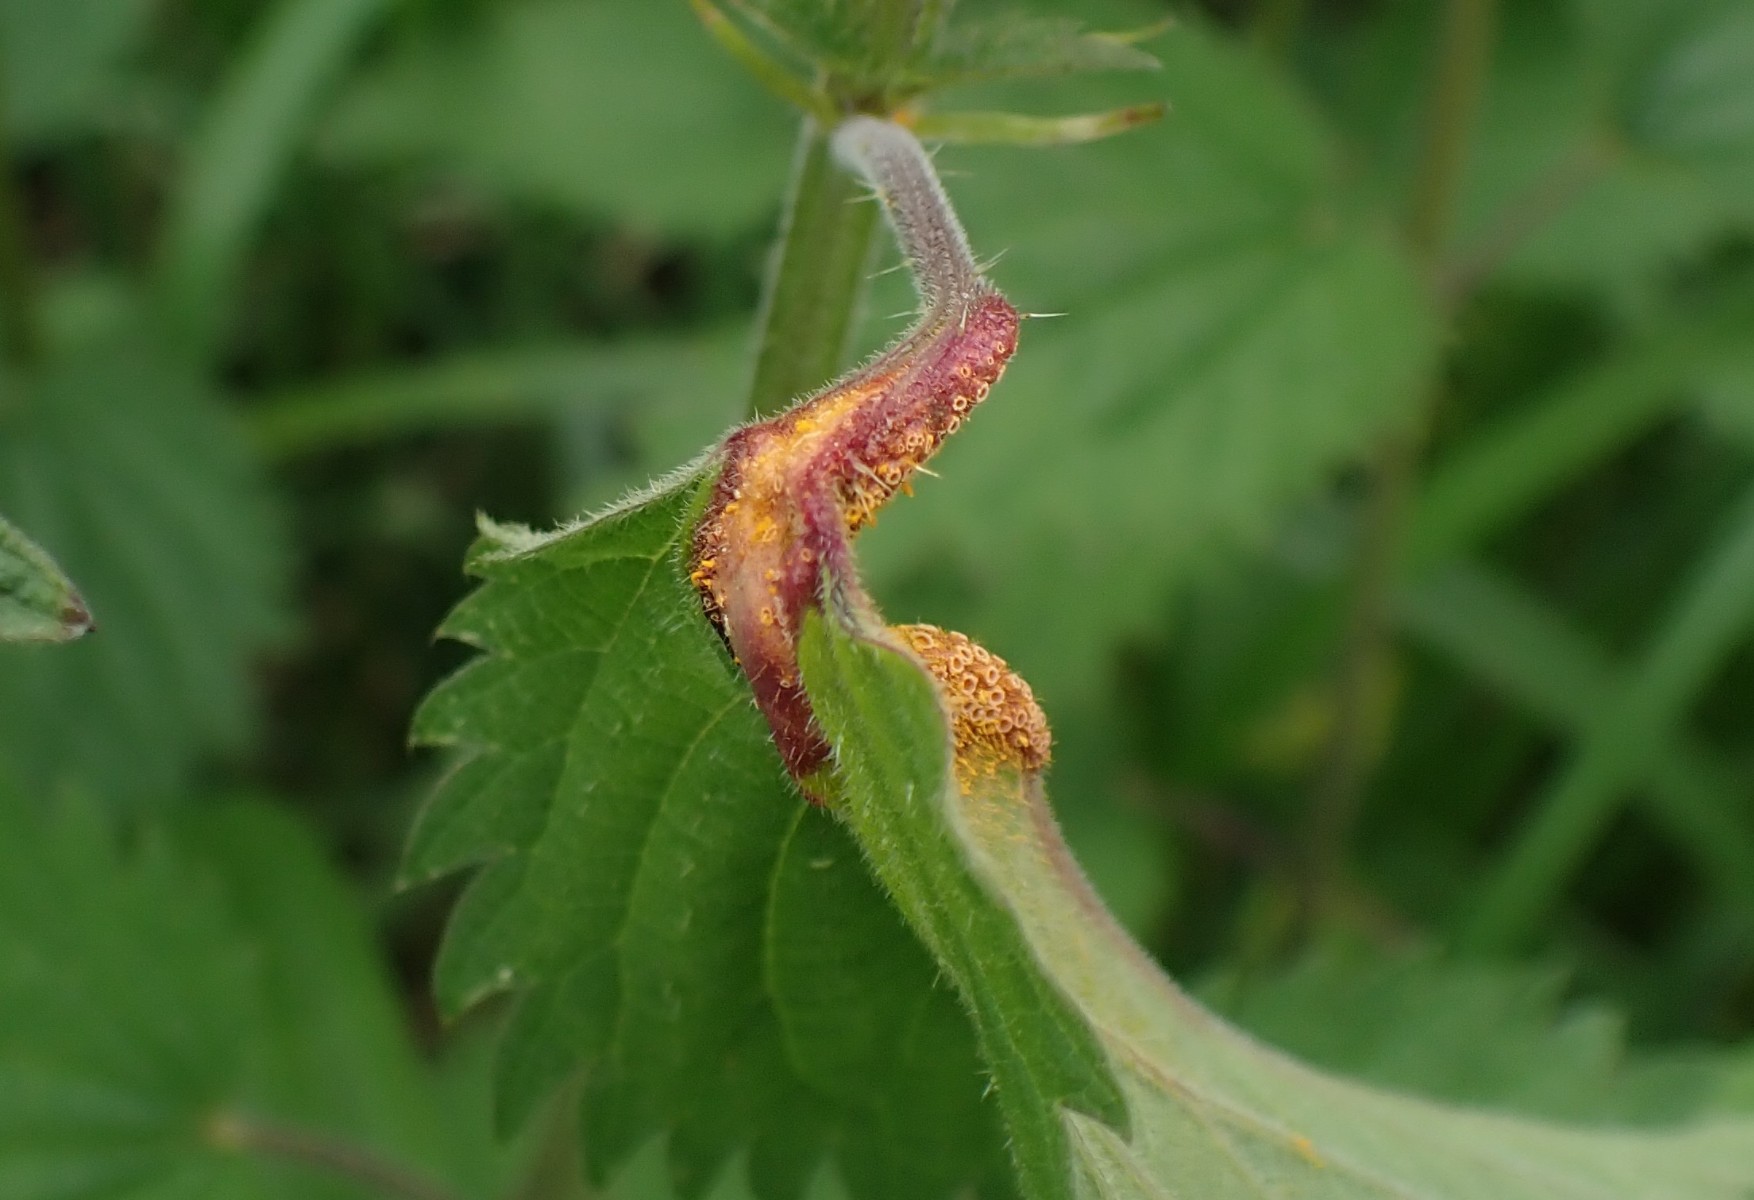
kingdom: Fungi
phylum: Basidiomycota
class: Pucciniomycetes
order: Pucciniales
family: Pucciniaceae
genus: Puccinia
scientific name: Puccinia urticata
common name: nældegalle-tvecellerust
